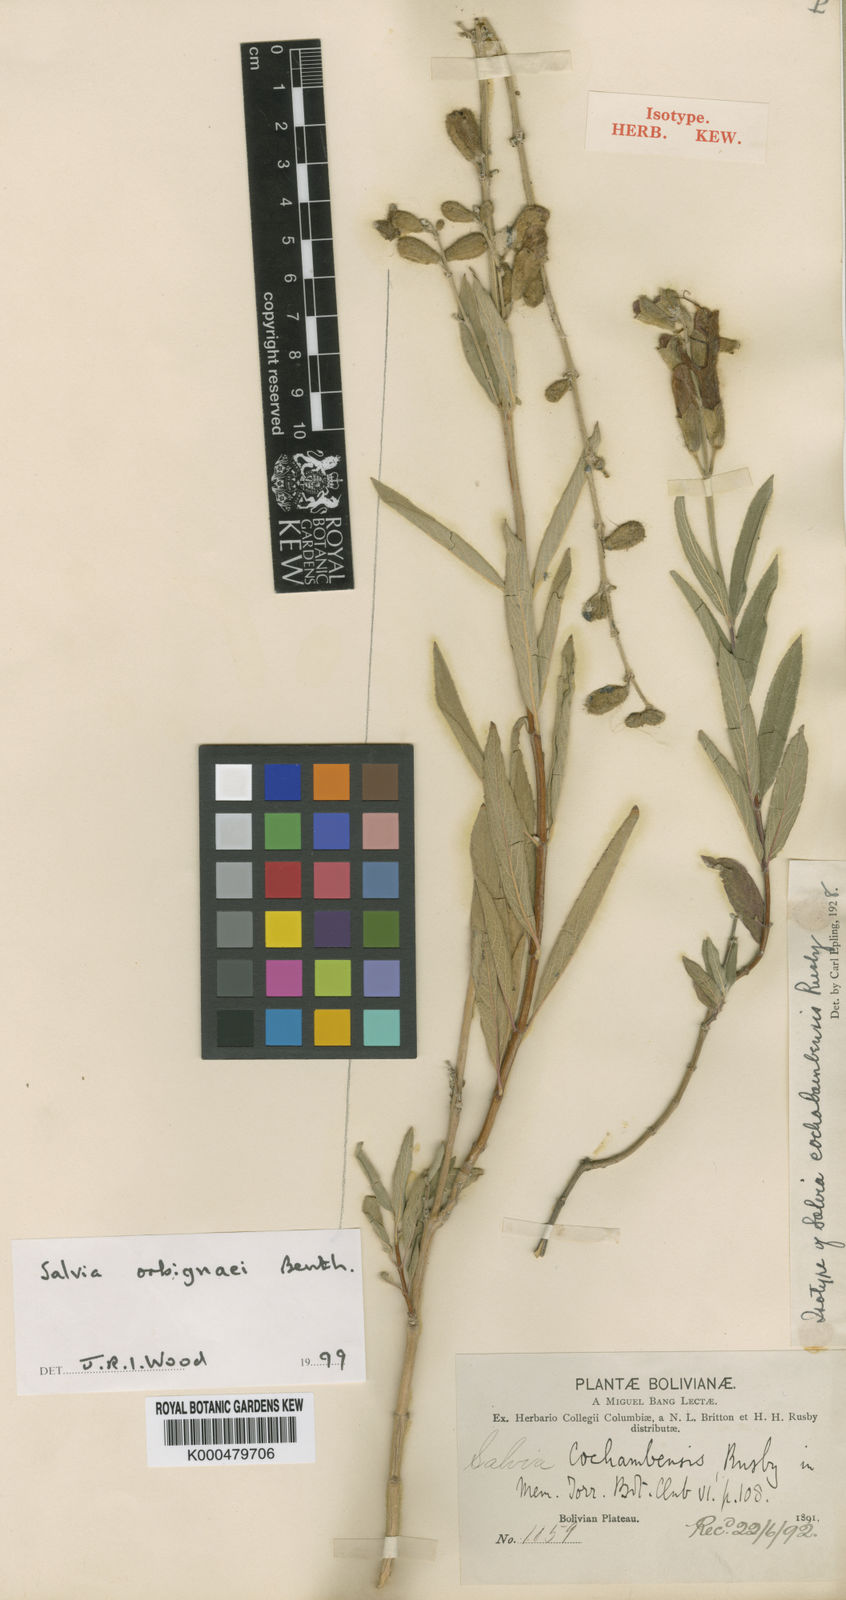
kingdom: Plantae
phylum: Tracheophyta
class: Magnoliopsida
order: Lamiales
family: Lamiaceae
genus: Salvia
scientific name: Salvia orbignaei
